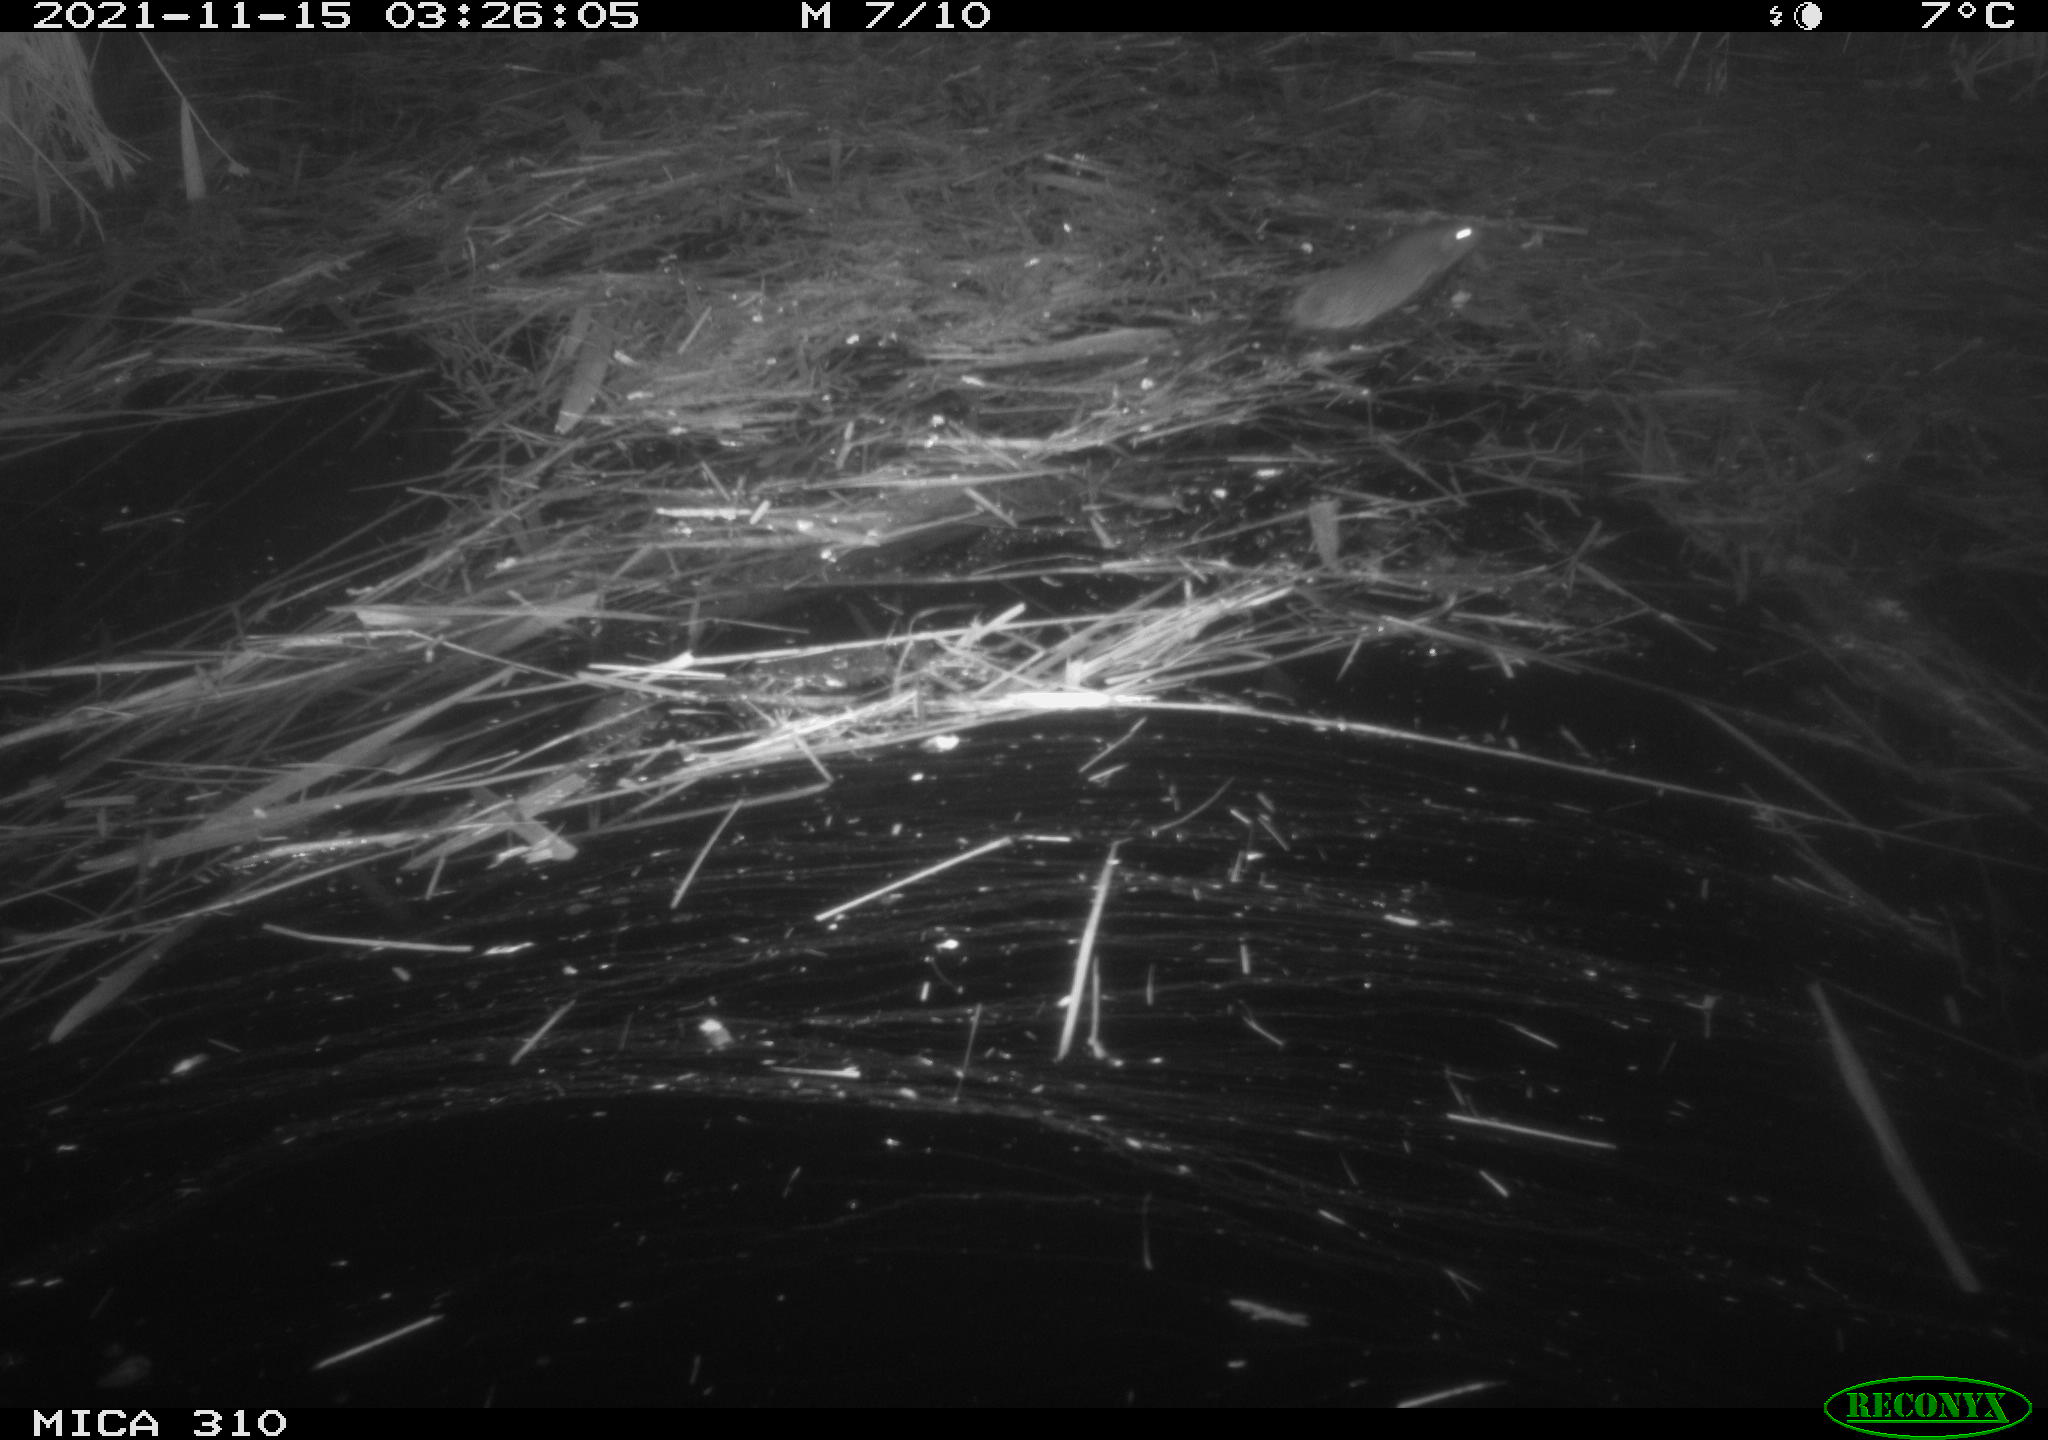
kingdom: Animalia
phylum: Chordata
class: Mammalia
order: Rodentia
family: Muridae
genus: Rattus
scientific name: Rattus norvegicus
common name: Brown rat
